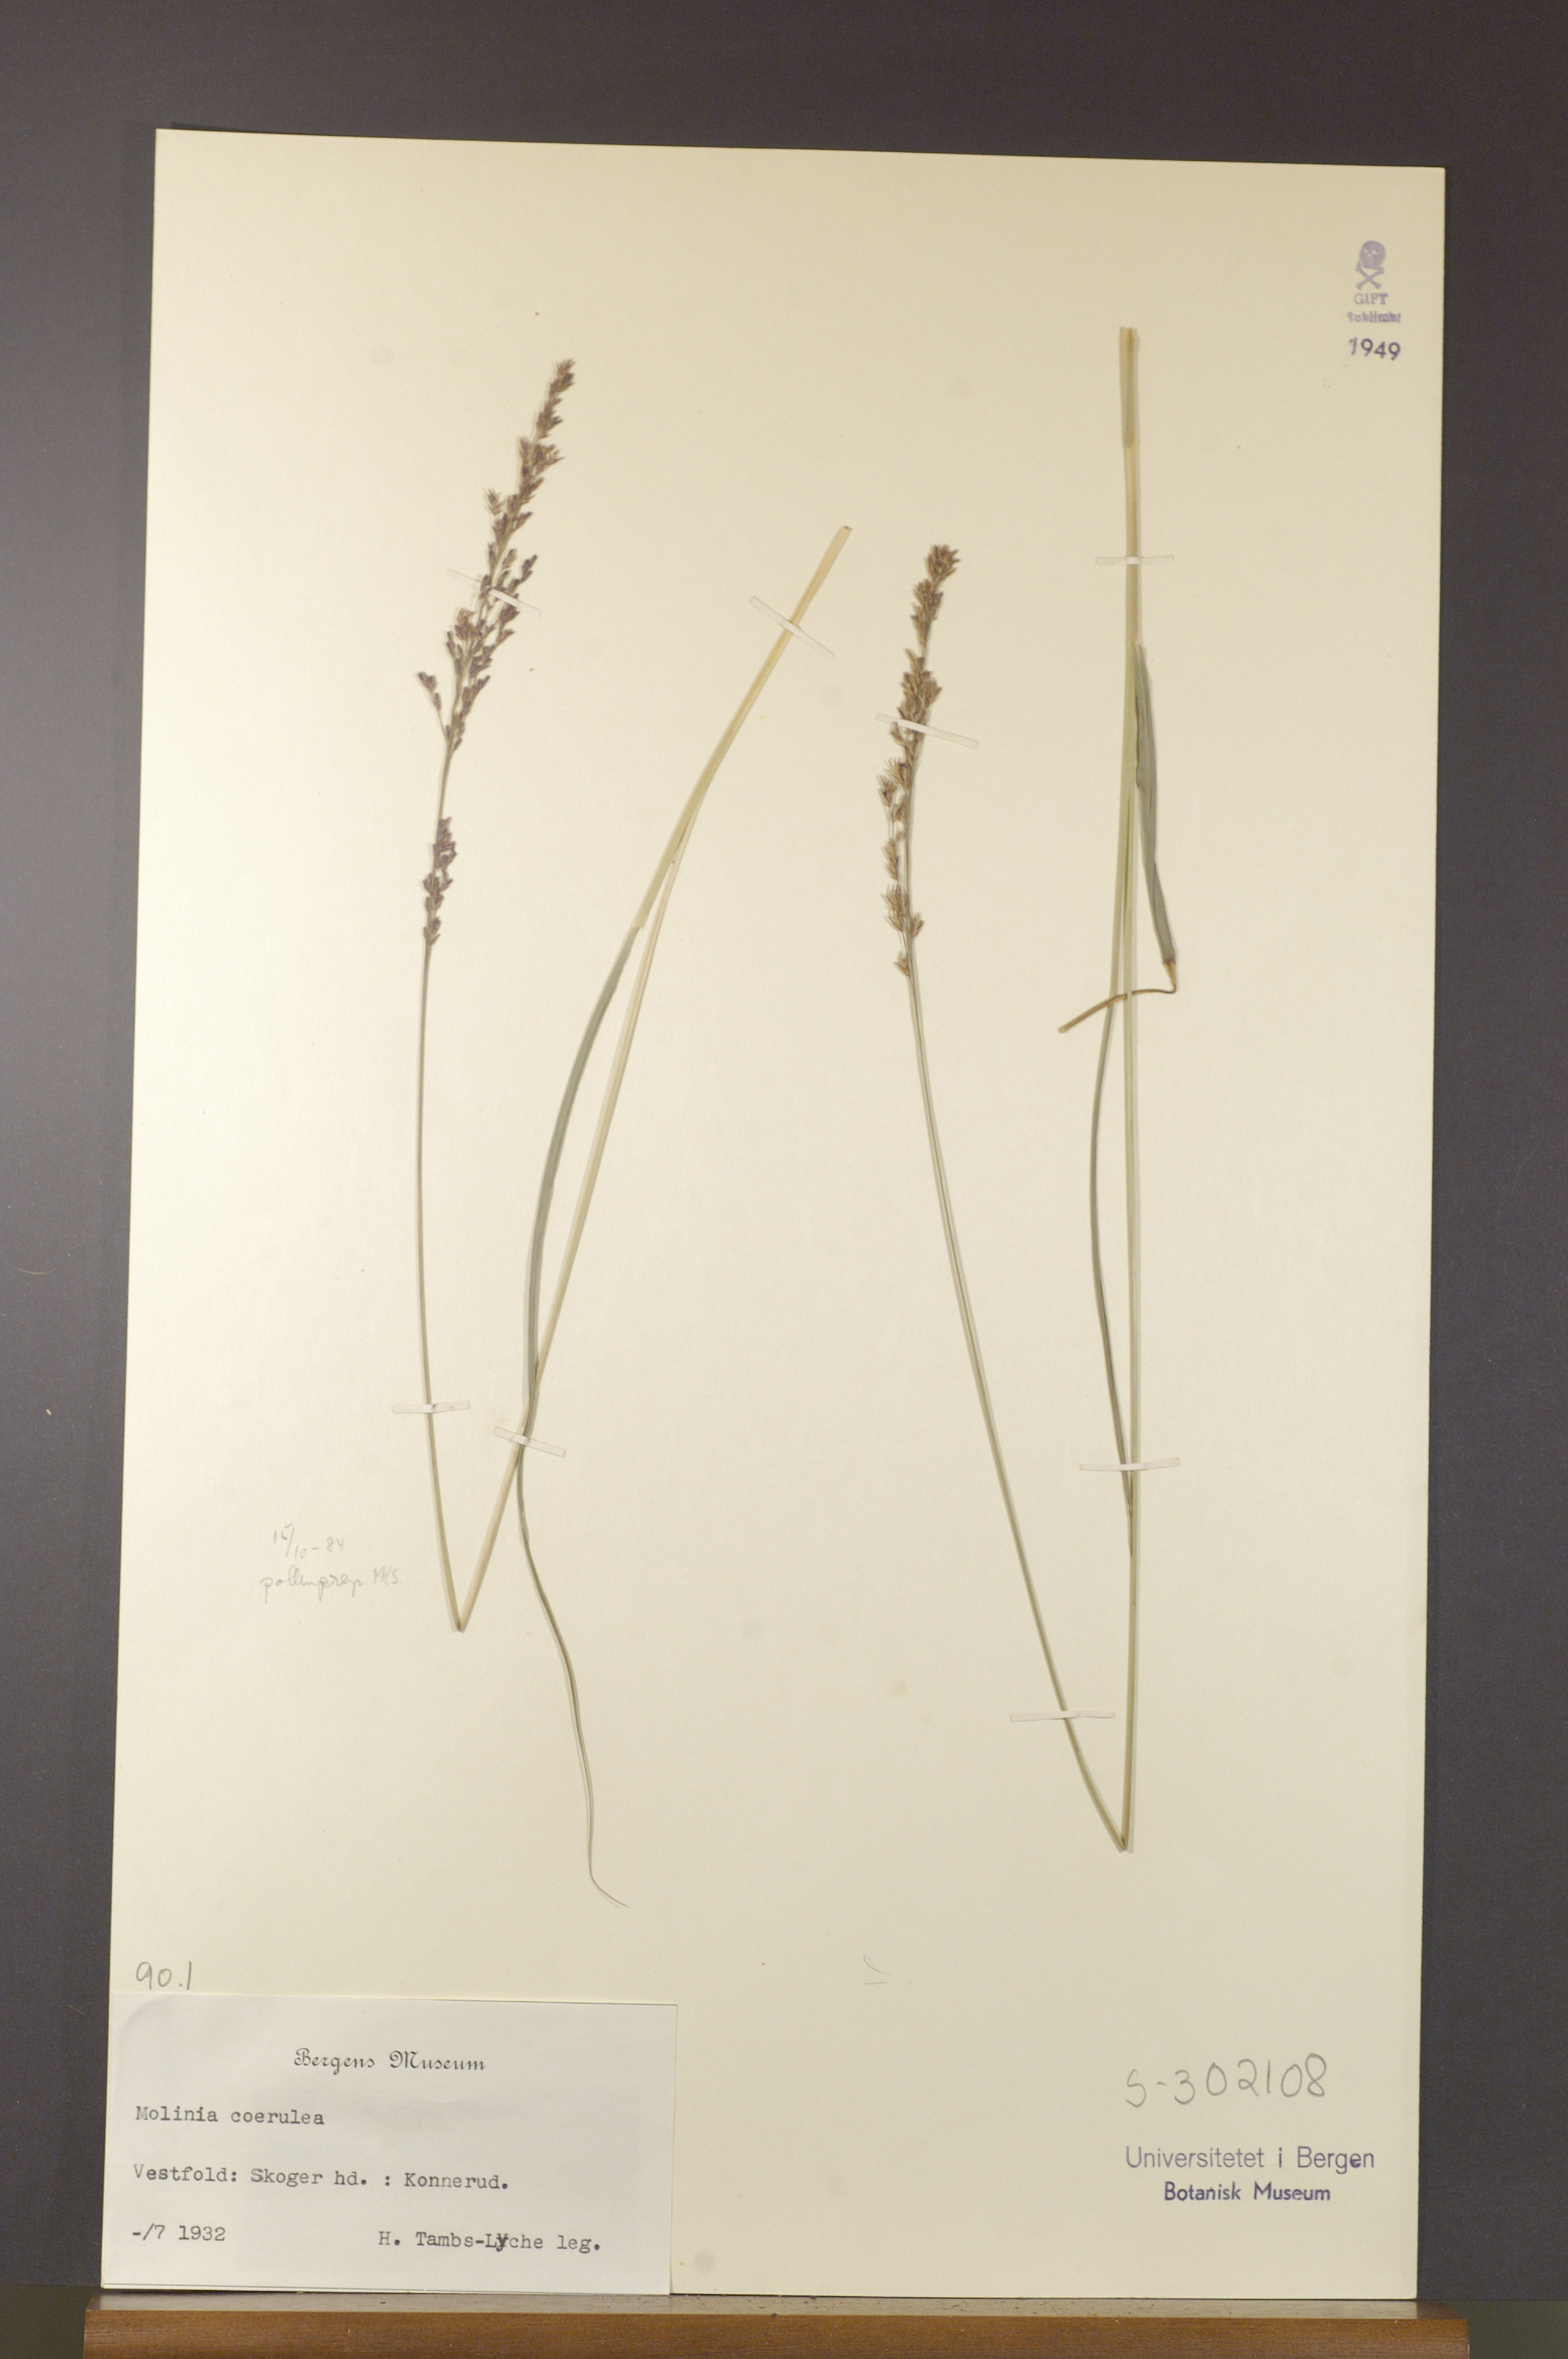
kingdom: Plantae
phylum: Tracheophyta
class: Liliopsida
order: Poales
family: Poaceae
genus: Molinia
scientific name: Molinia caerulea
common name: Purple moor-grass
